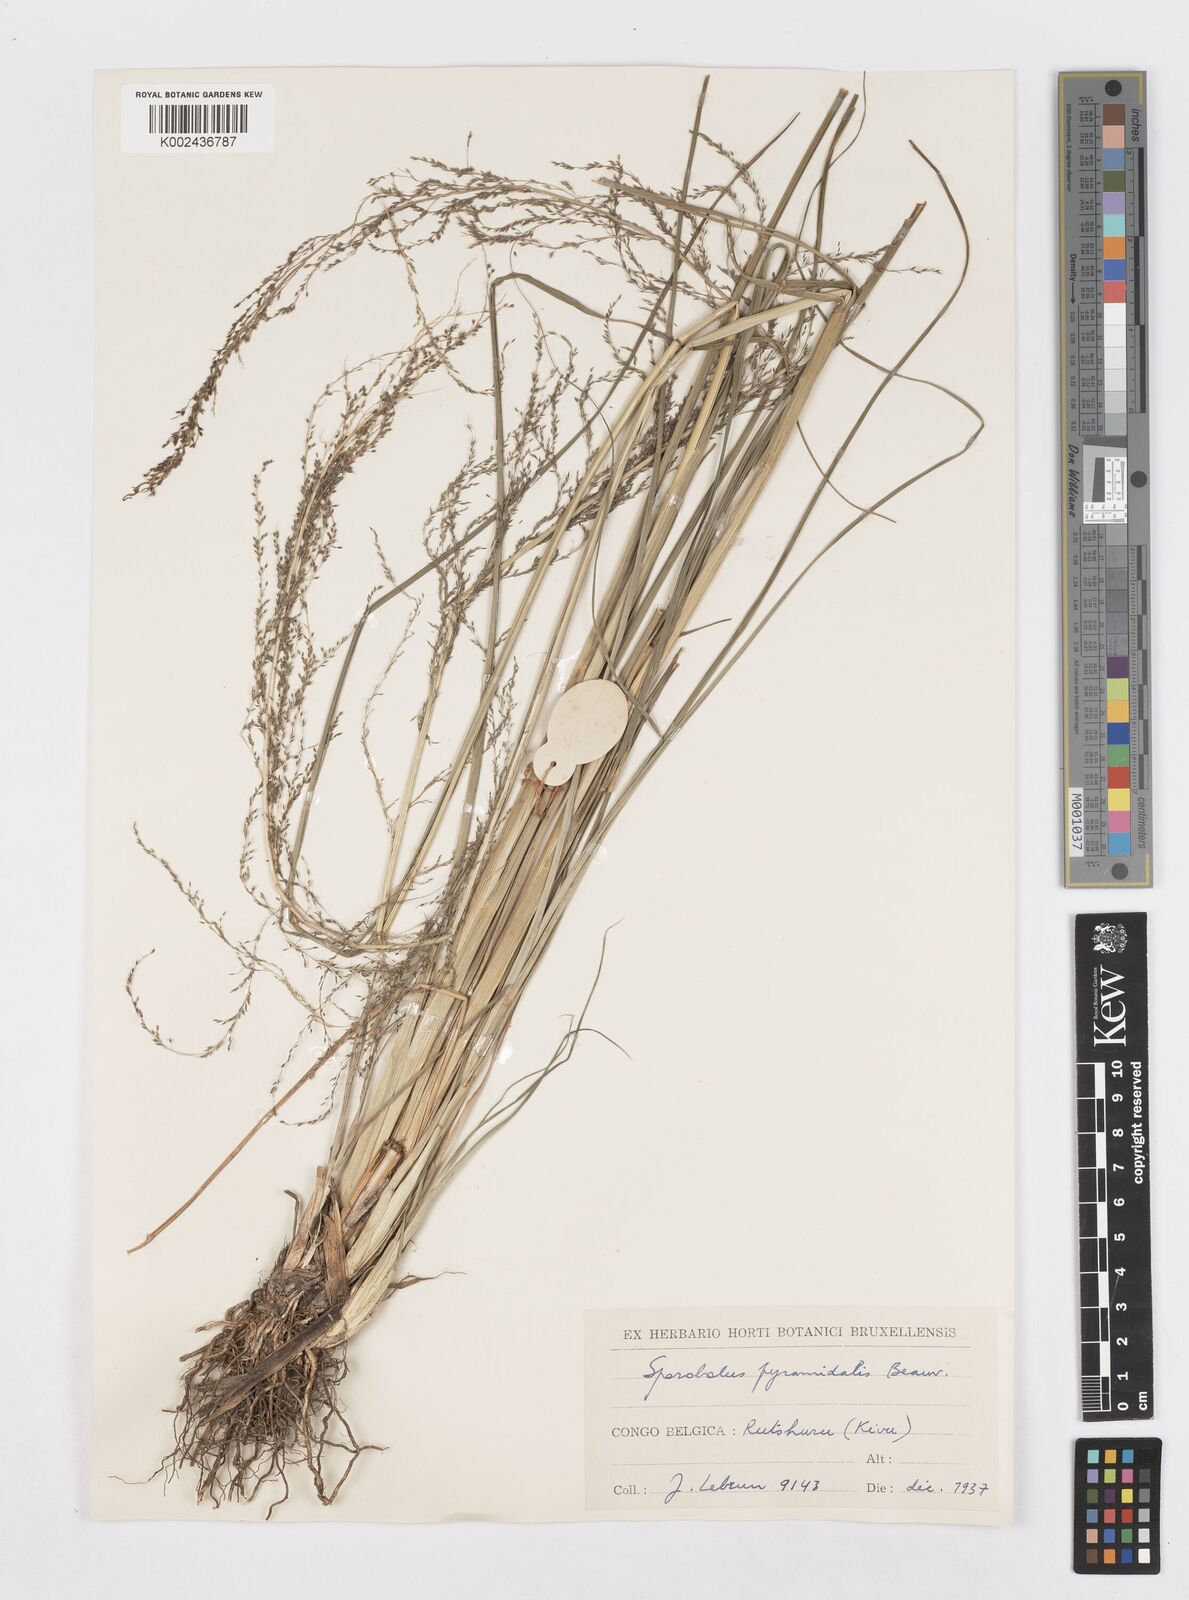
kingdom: Plantae
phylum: Tracheophyta
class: Liliopsida
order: Poales
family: Poaceae
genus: Sporobolus
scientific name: Sporobolus pyramidalis
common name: West indian dropseed
